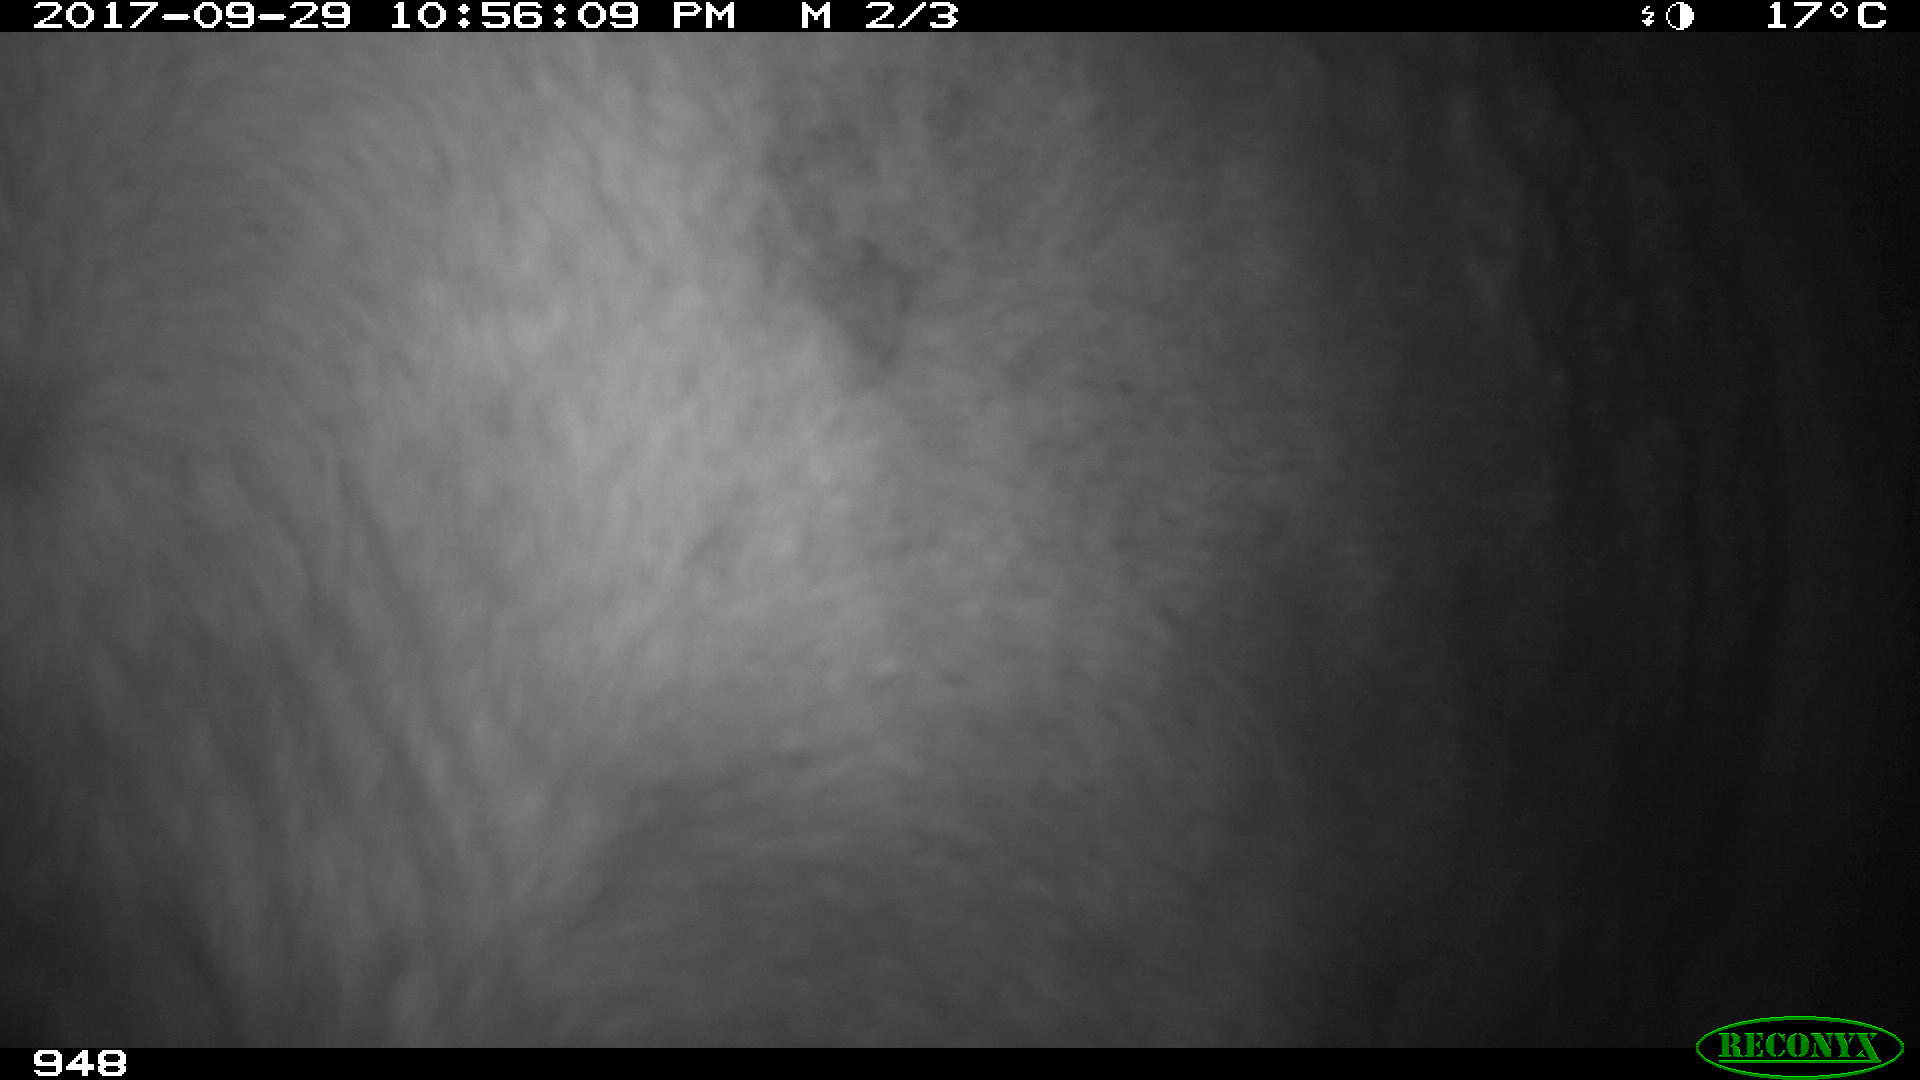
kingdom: Animalia
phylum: Chordata
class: Mammalia
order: Perissodactyla
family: Equidae
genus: Equus
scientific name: Equus caballus
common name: Horse
